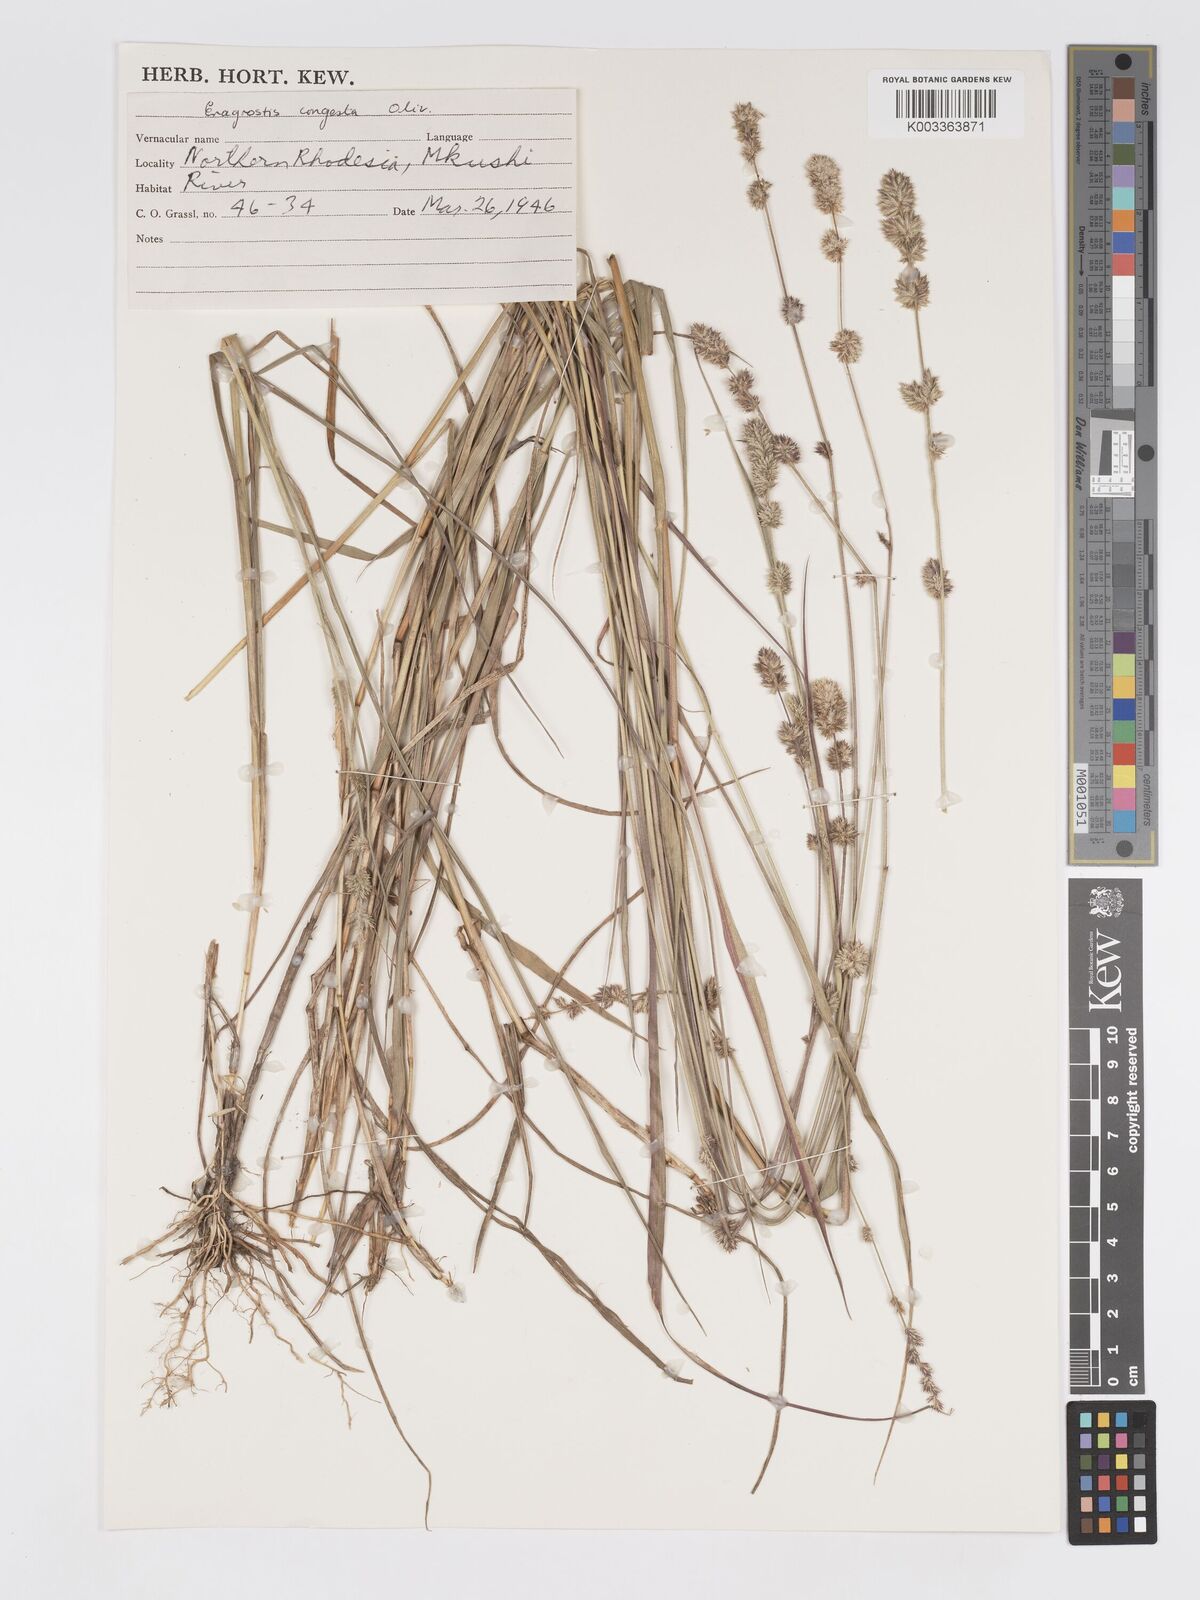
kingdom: Plantae
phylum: Tracheophyta
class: Liliopsida
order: Poales
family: Poaceae
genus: Eragrostis
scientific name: Eragrostis congesta
